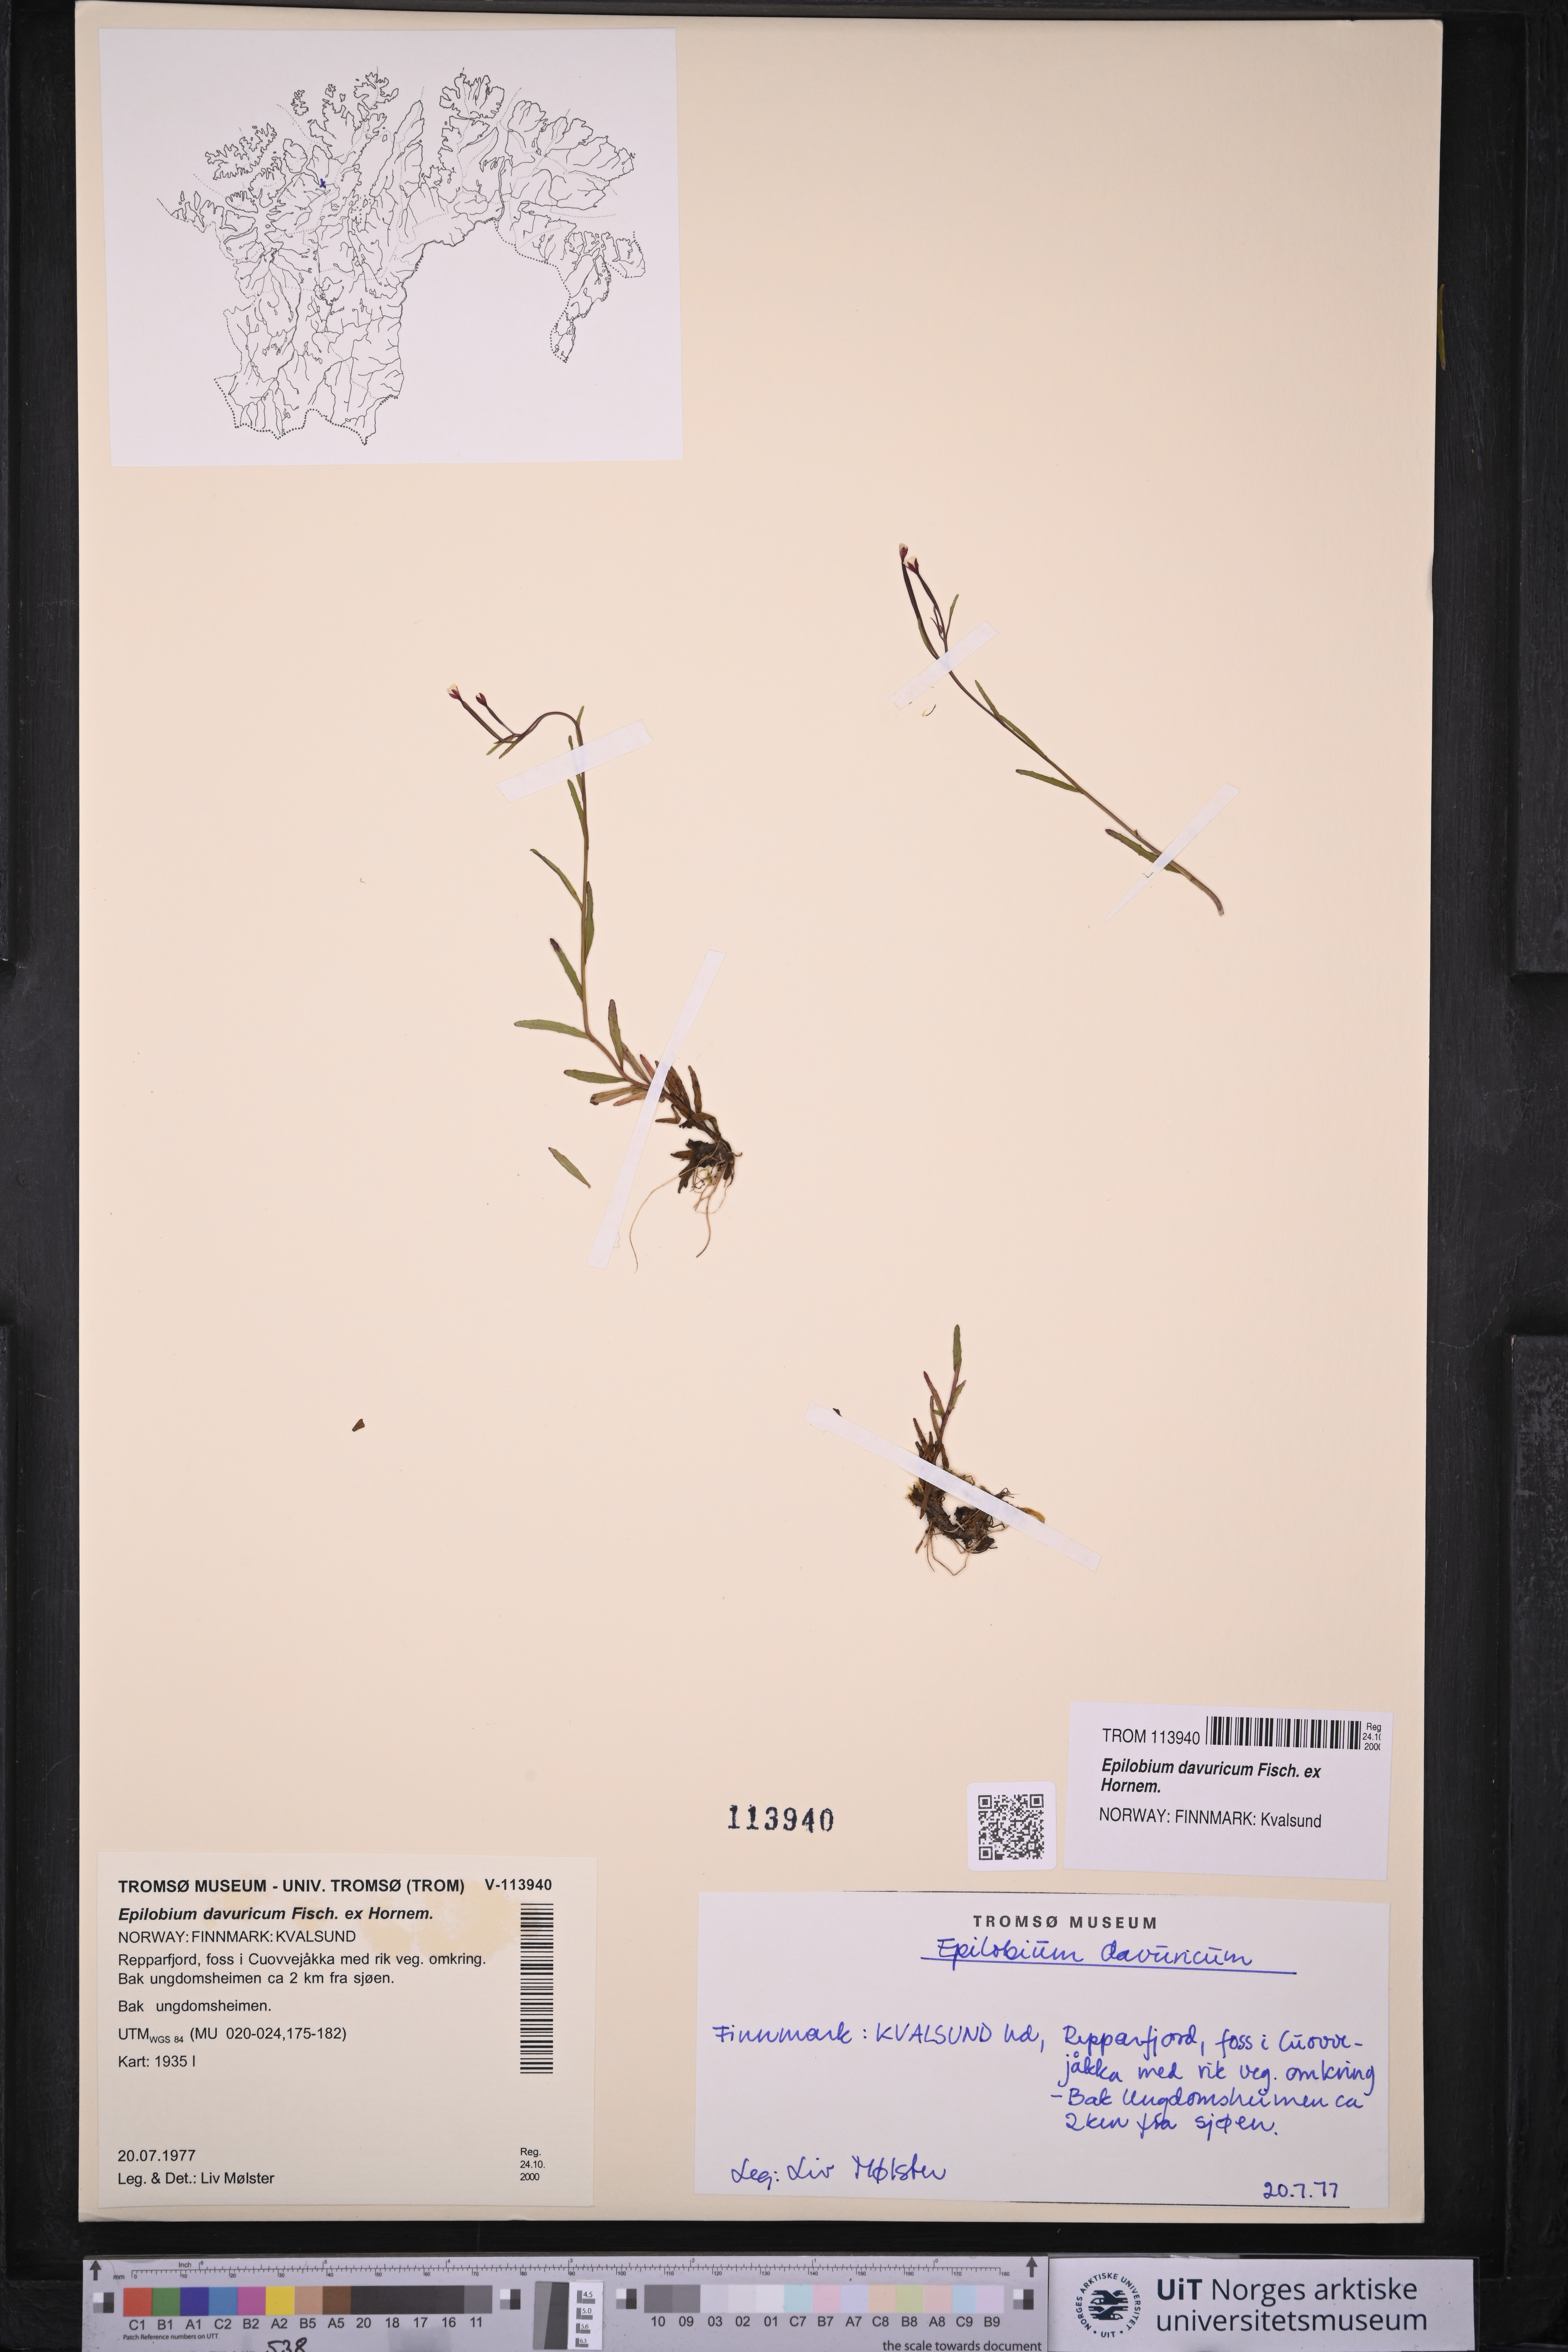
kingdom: Plantae
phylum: Tracheophyta
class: Magnoliopsida
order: Myrtales
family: Onagraceae
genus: Epilobium
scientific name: Epilobium davuricum
